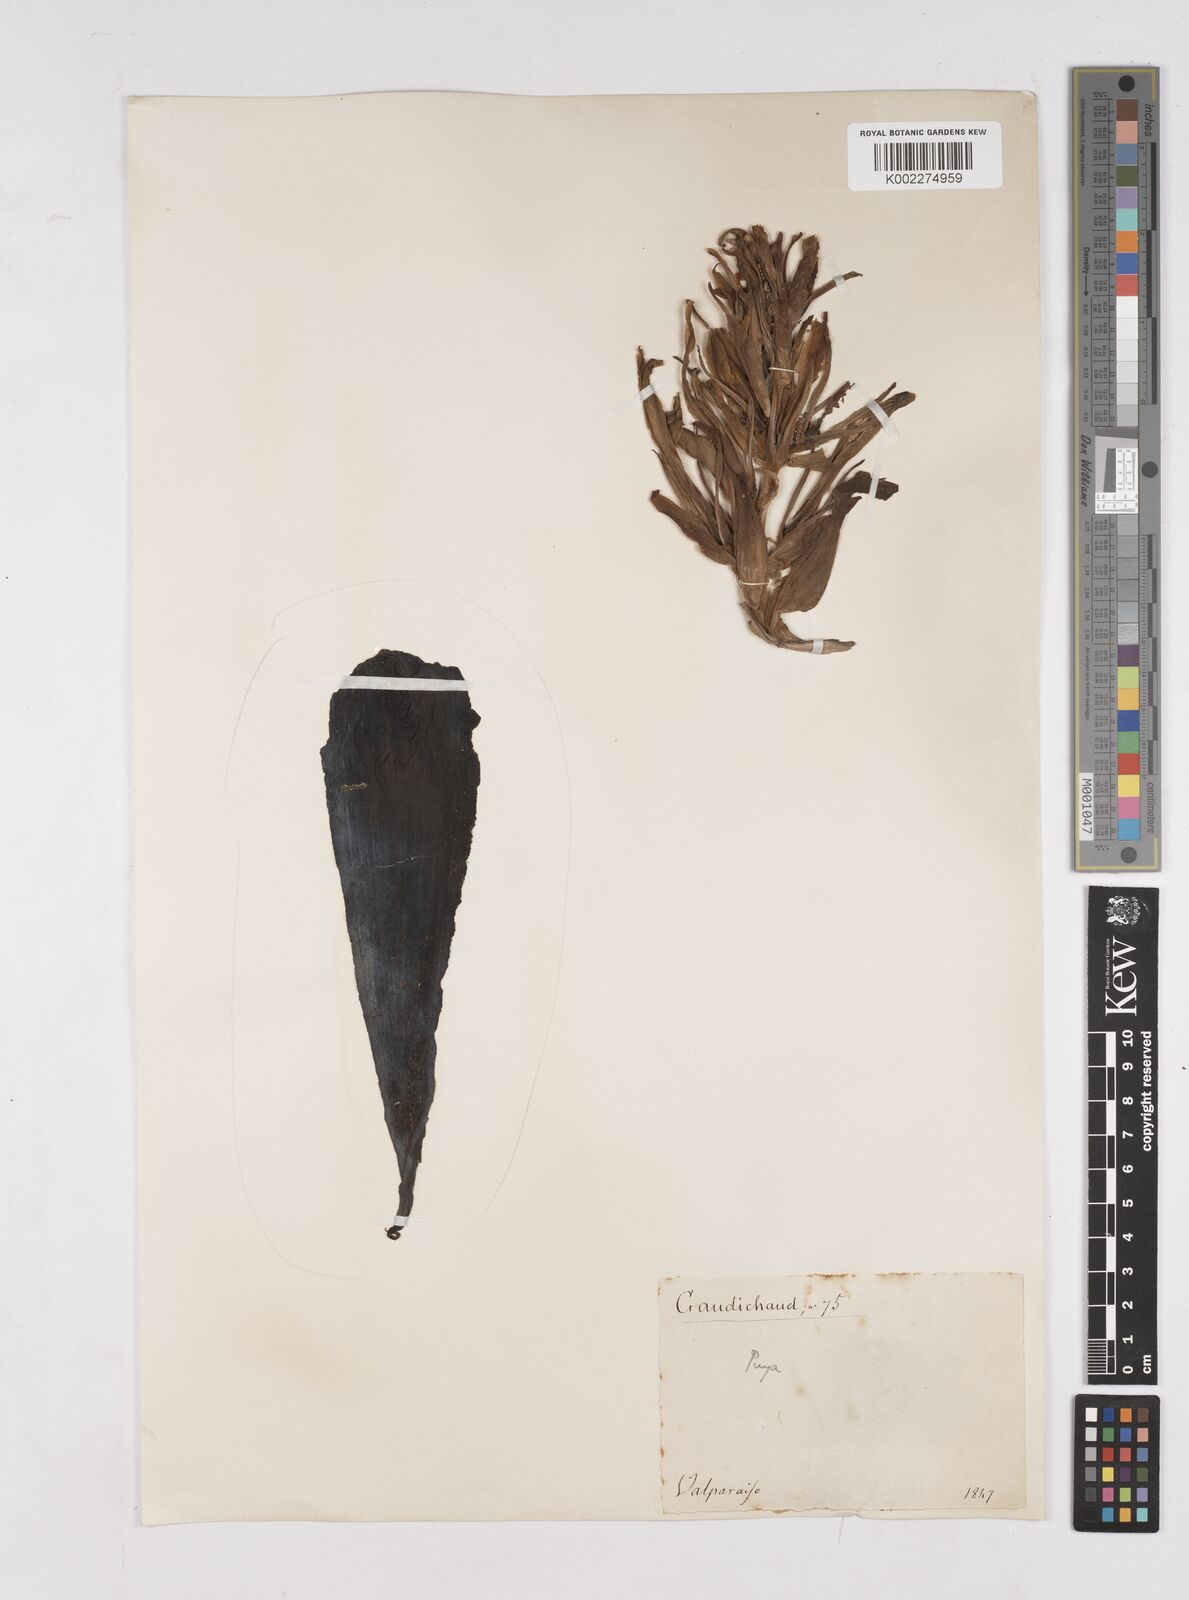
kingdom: Plantae
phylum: Tracheophyta
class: Liliopsida
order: Poales
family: Bromeliaceae
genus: Puya
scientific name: Puya chilensis
